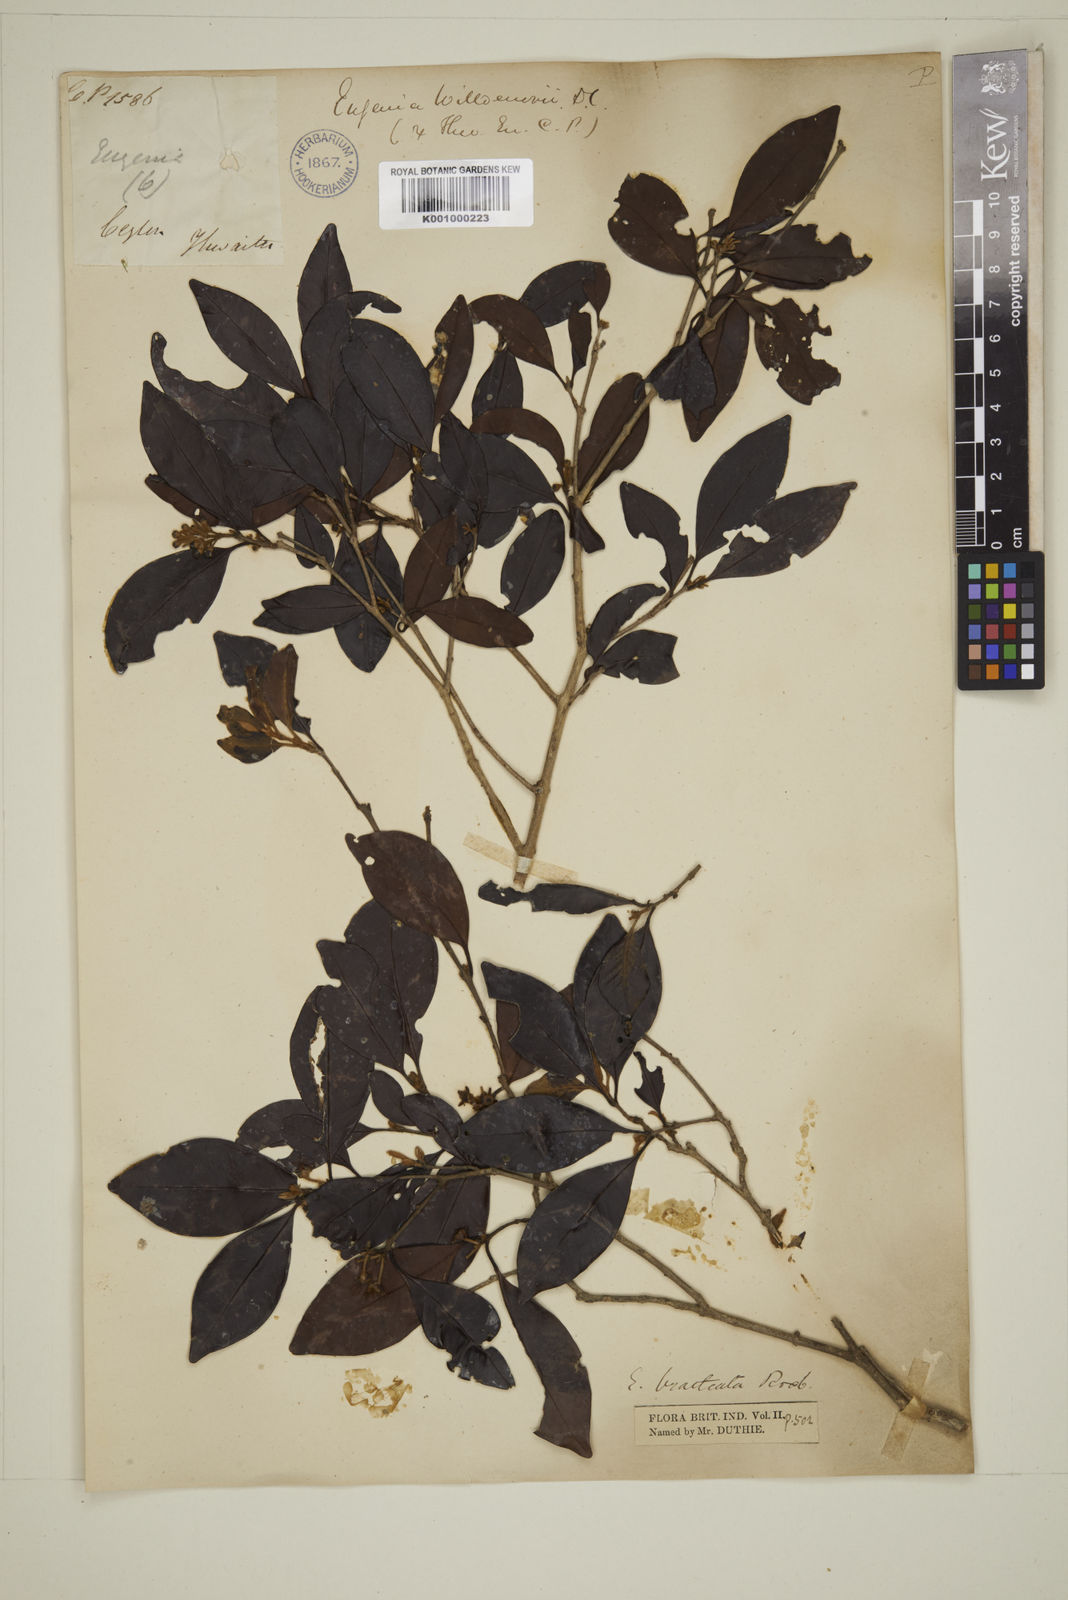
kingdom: Plantae
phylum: Tracheophyta
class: Magnoliopsida
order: Myrtales
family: Myrtaceae
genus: Eugenia
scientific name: Eugenia pseudopsidium
